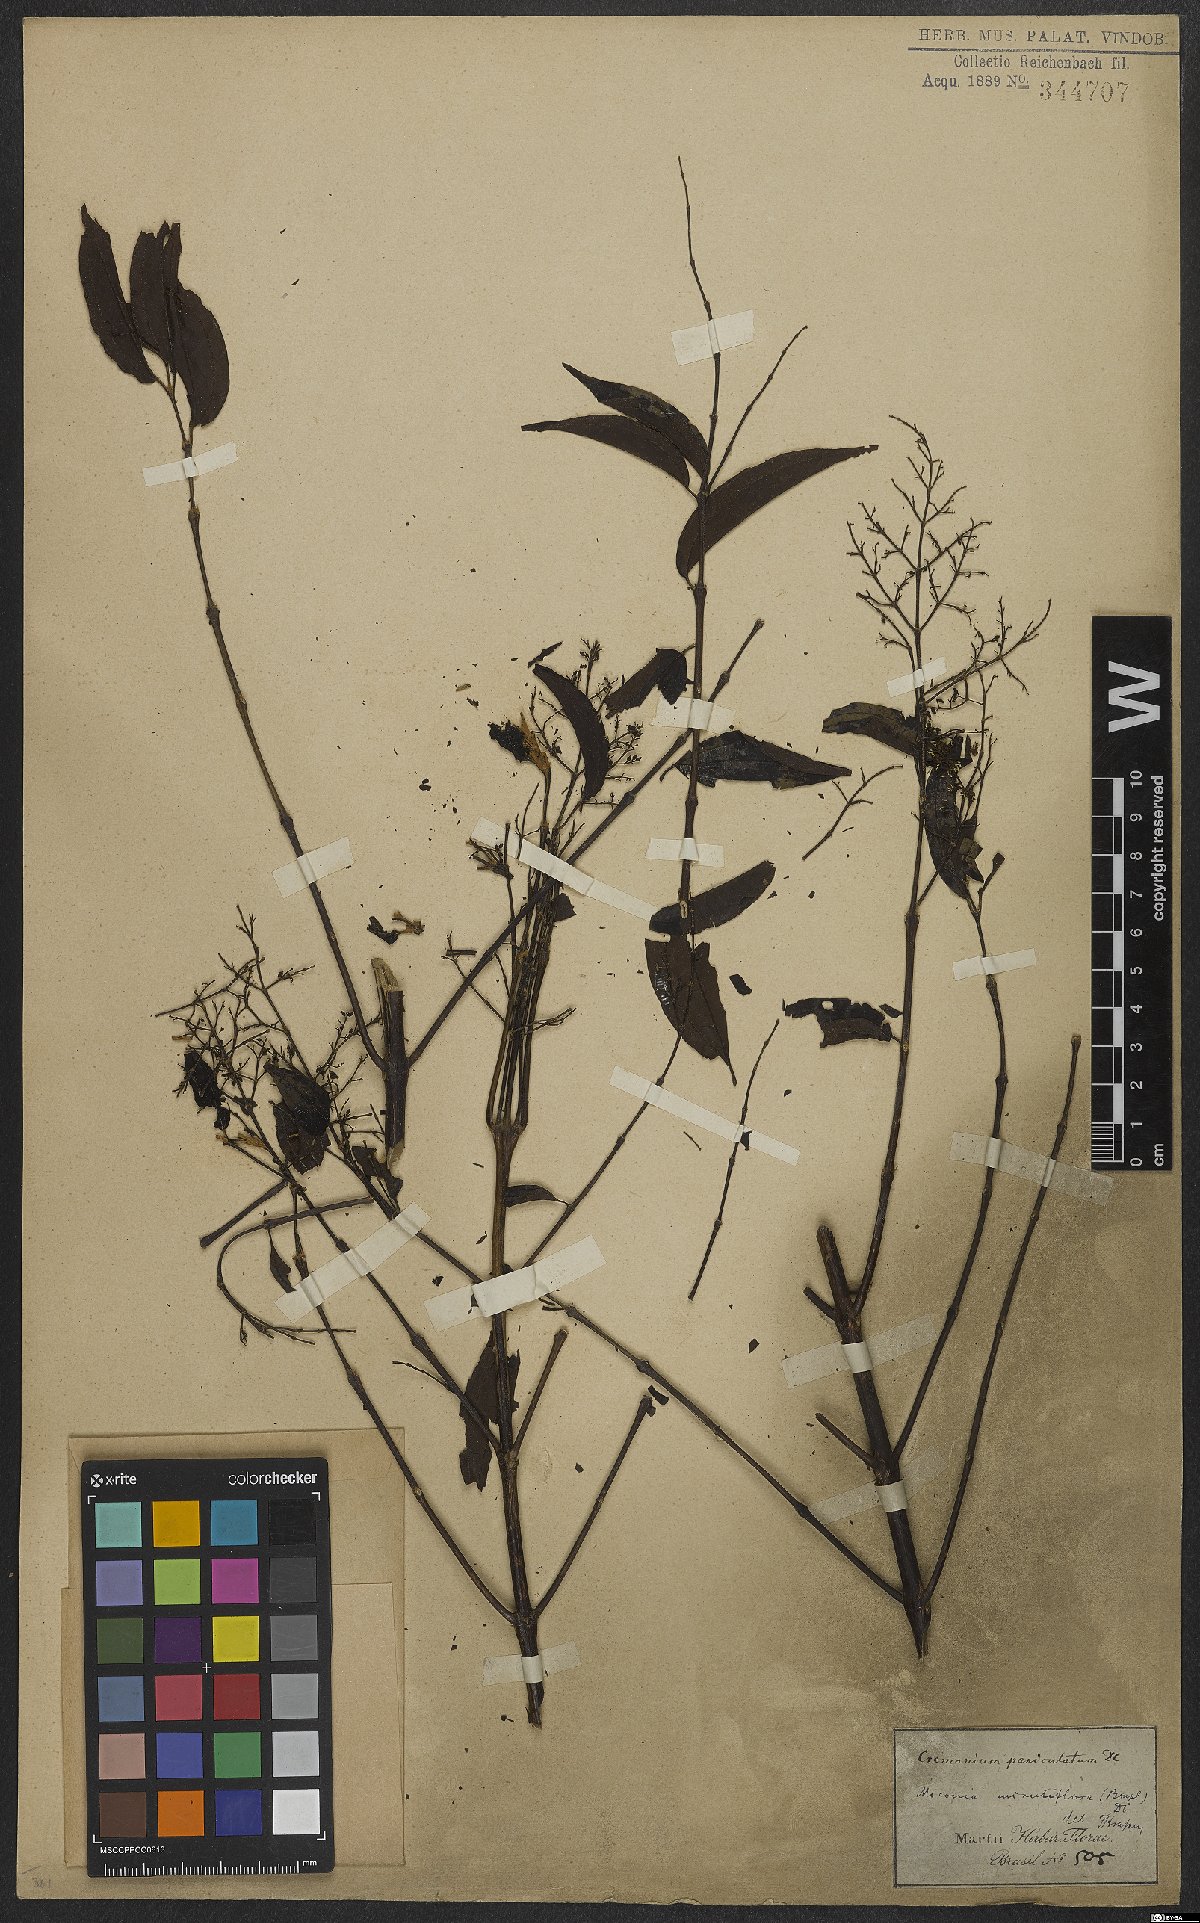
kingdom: Plantae
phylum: Tracheophyta
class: Magnoliopsida
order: Myrtales
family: Melastomataceae
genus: Miconia
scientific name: Miconia minutiflora
